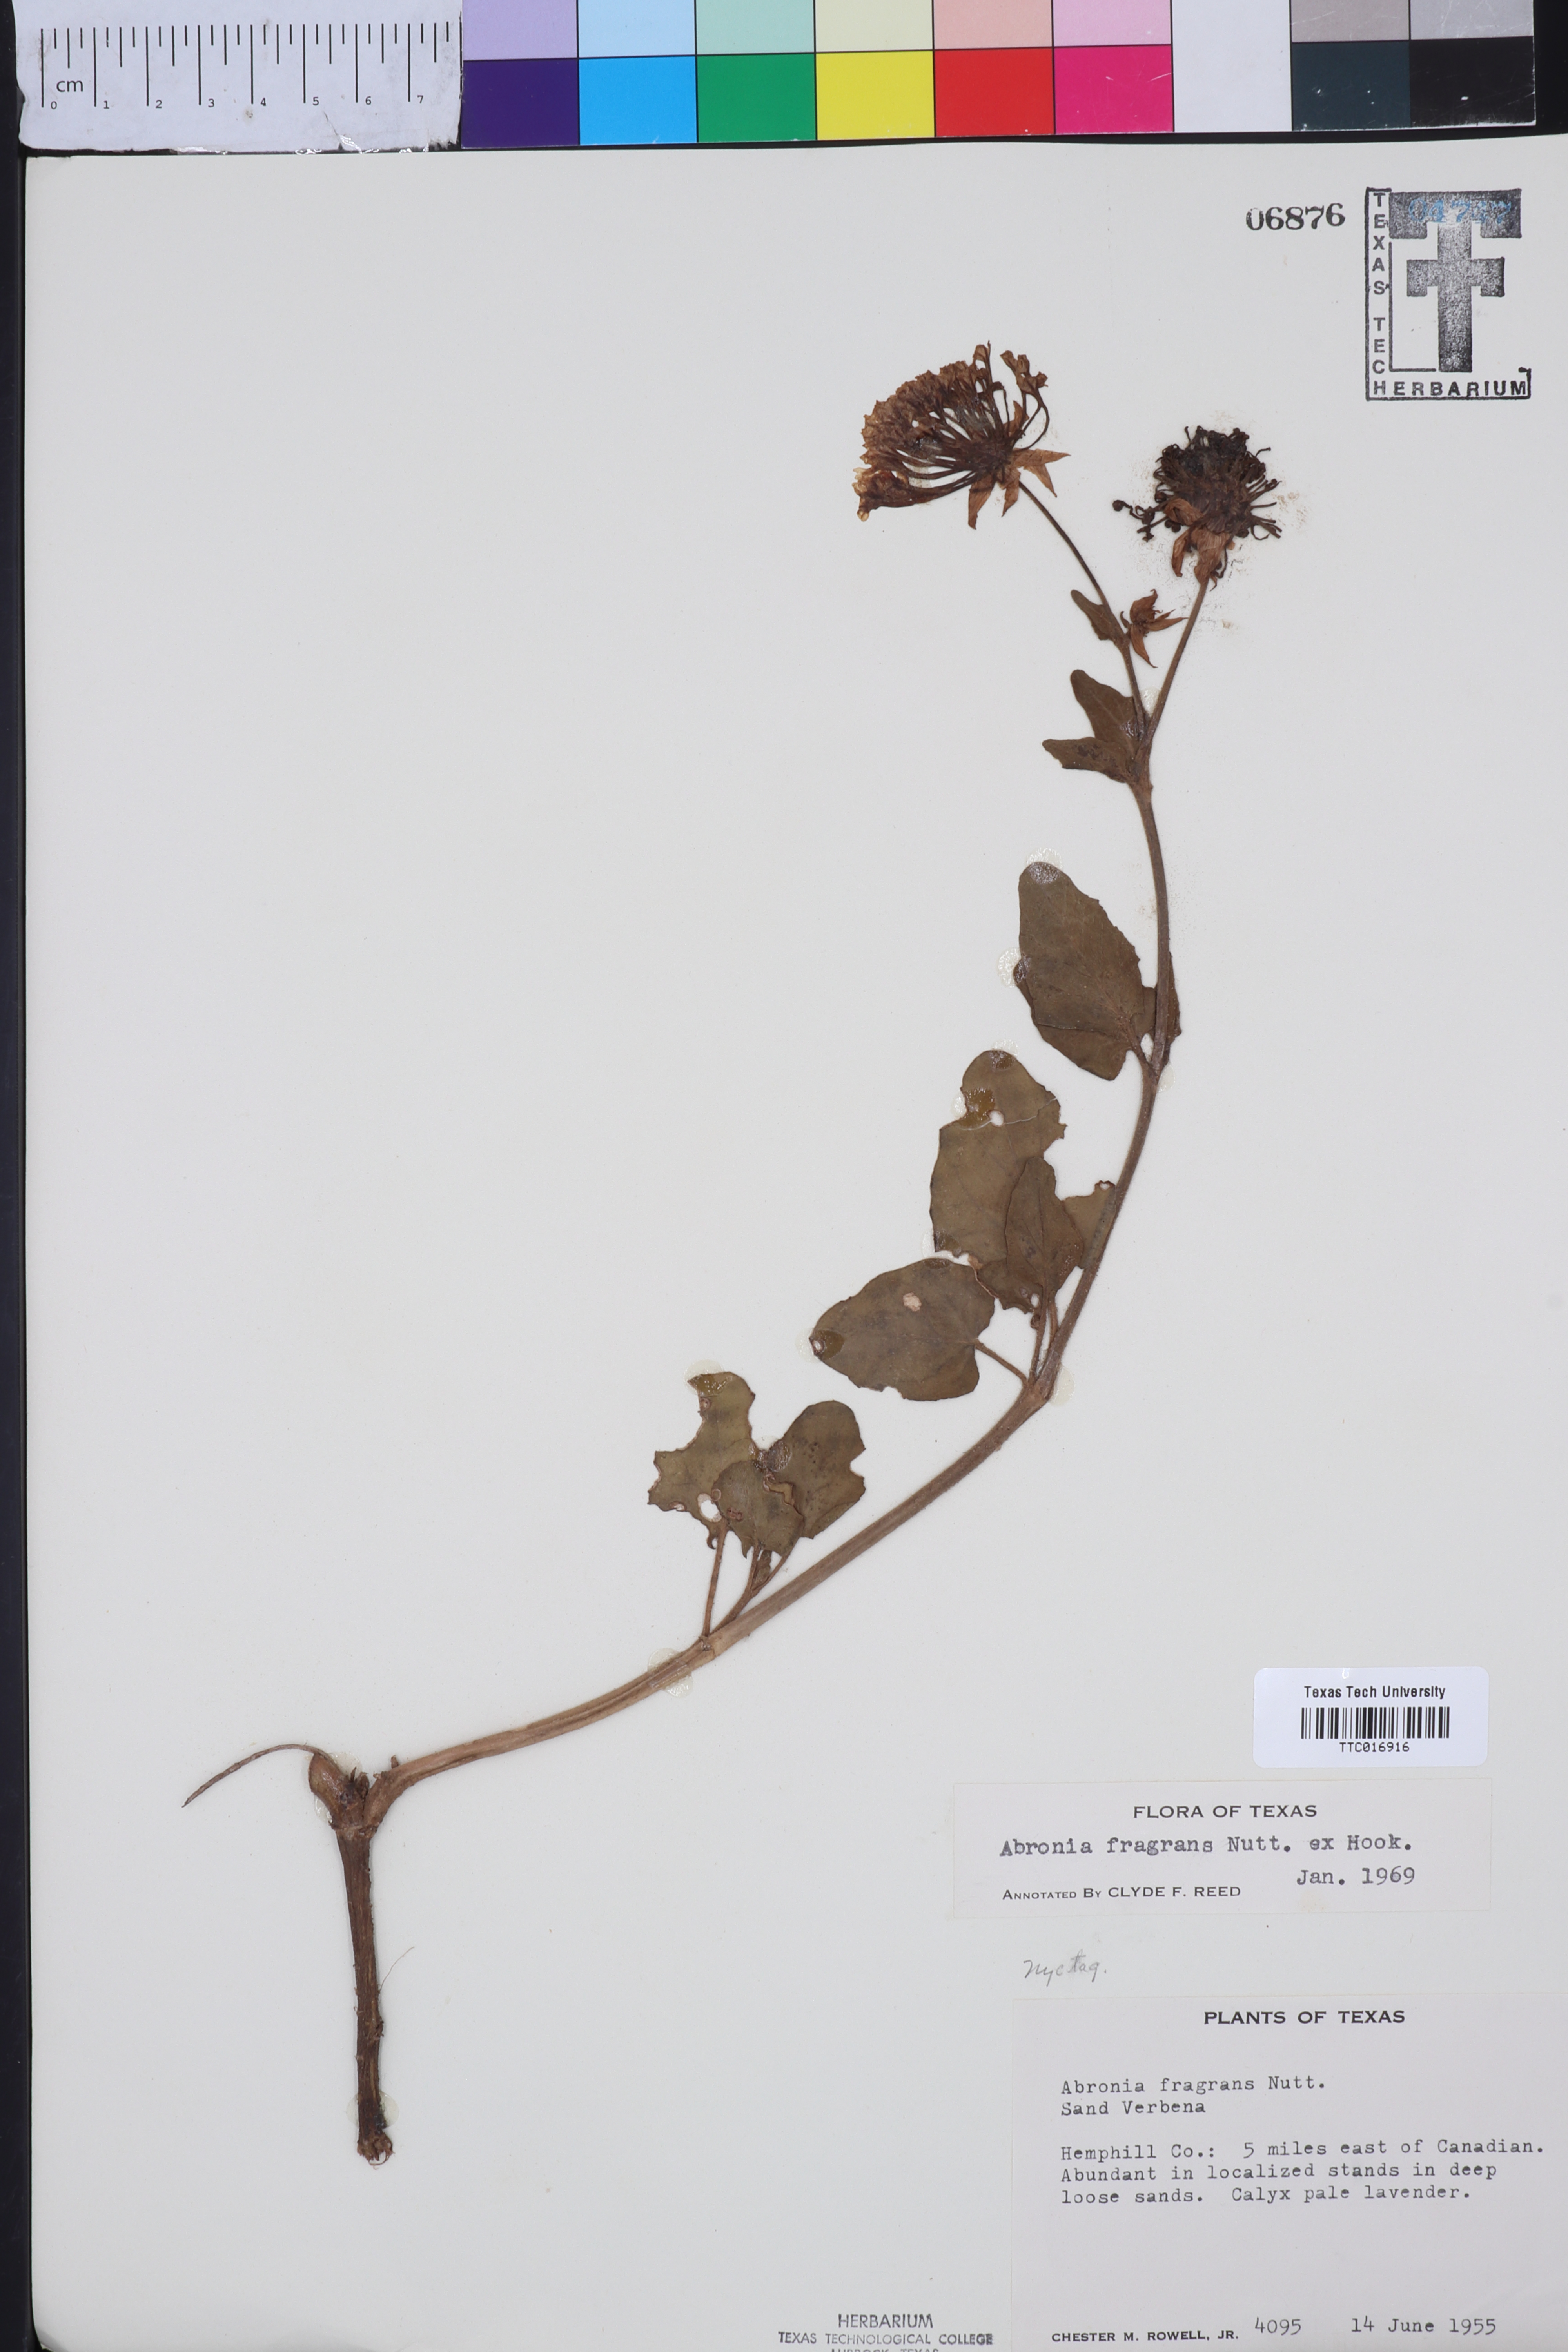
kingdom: Plantae
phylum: Tracheophyta
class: Magnoliopsida
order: Caryophyllales
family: Nyctaginaceae
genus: Abronia
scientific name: Abronia fragrans
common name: Fragrant sand-verbena
